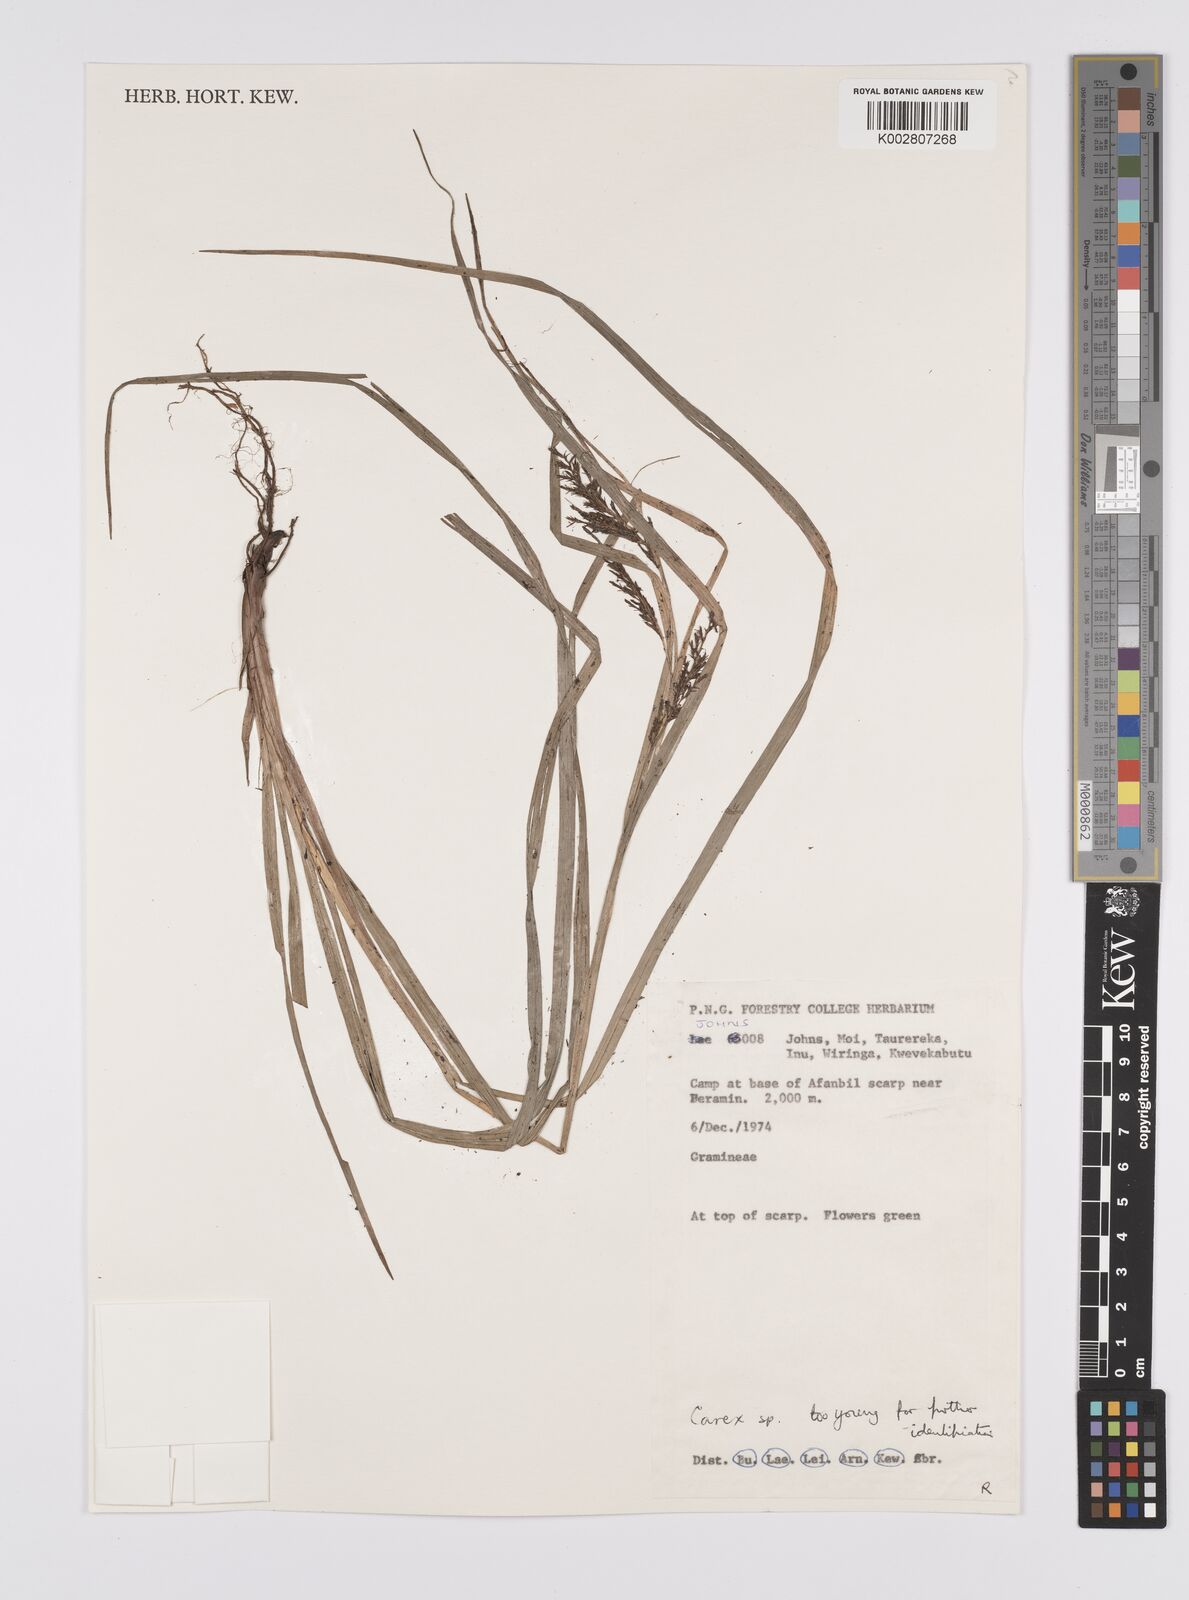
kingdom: Plantae
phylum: Tracheophyta
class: Liliopsida
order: Poales
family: Cyperaceae
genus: Carex
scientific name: Carex
